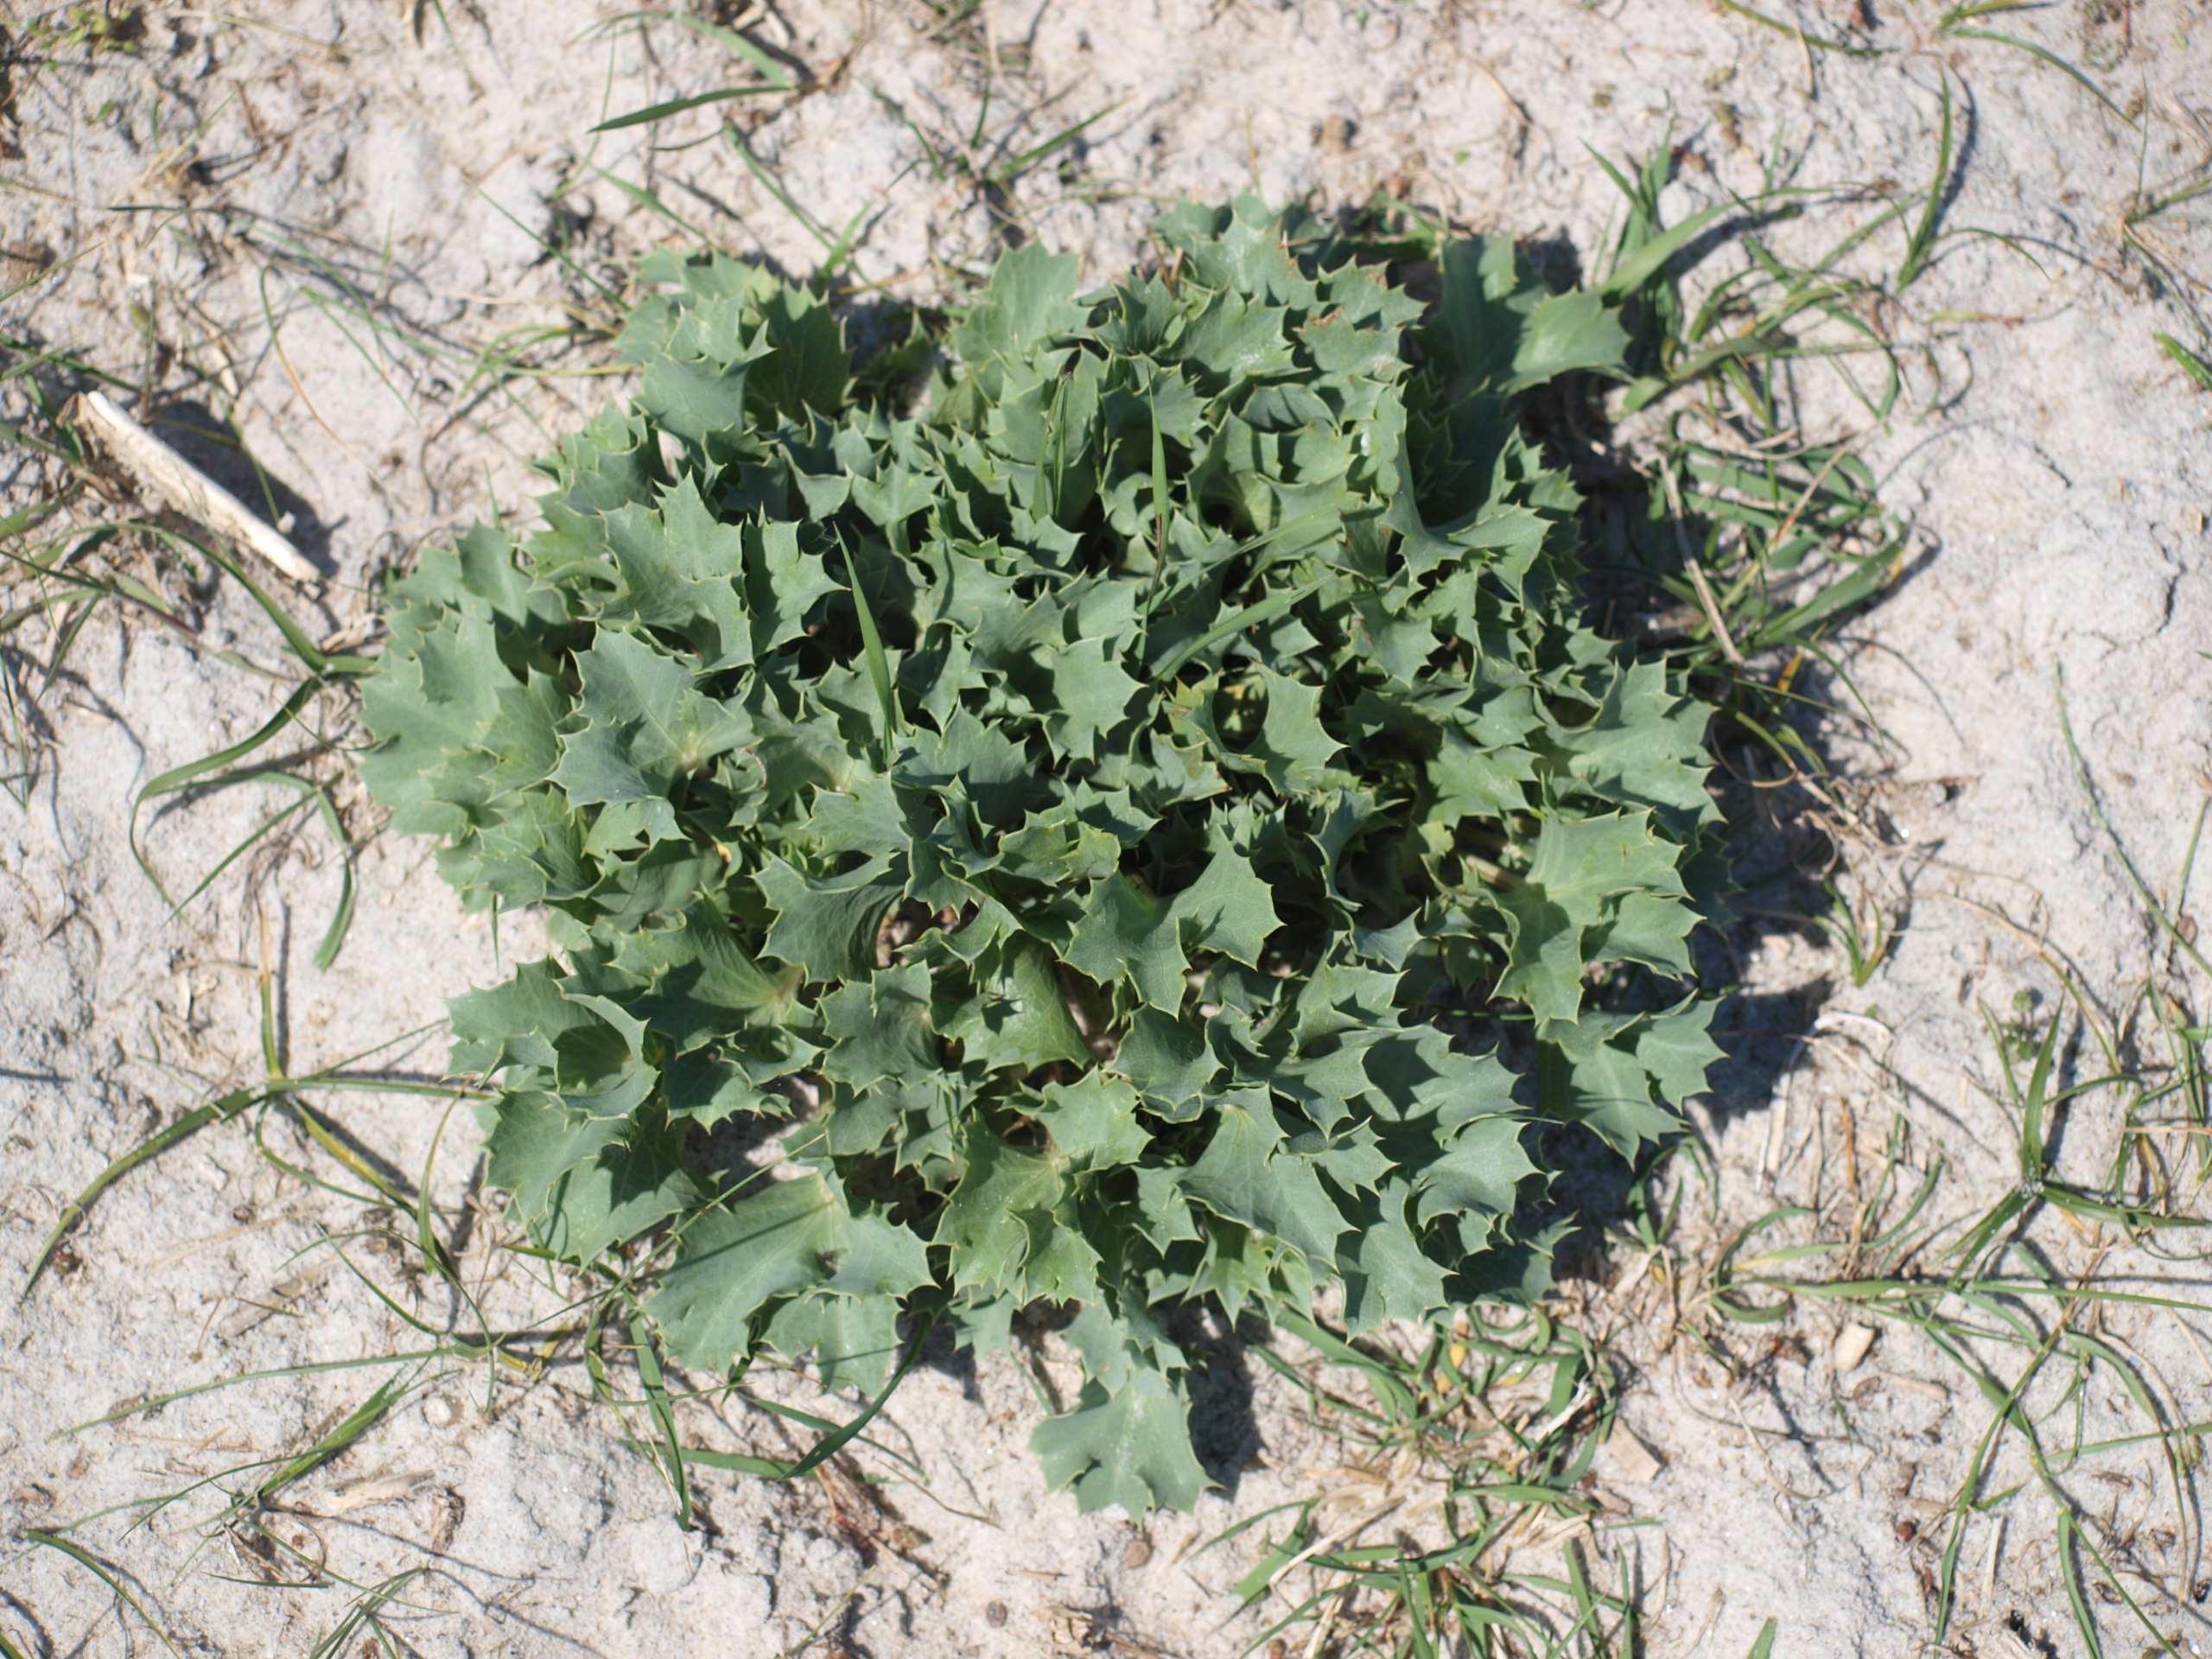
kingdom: Plantae
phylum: Tracheophyta
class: Magnoliopsida
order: Apiales
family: Apiaceae
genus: Eryngium
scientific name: Eryngium maritimum
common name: Strand-mandstro
